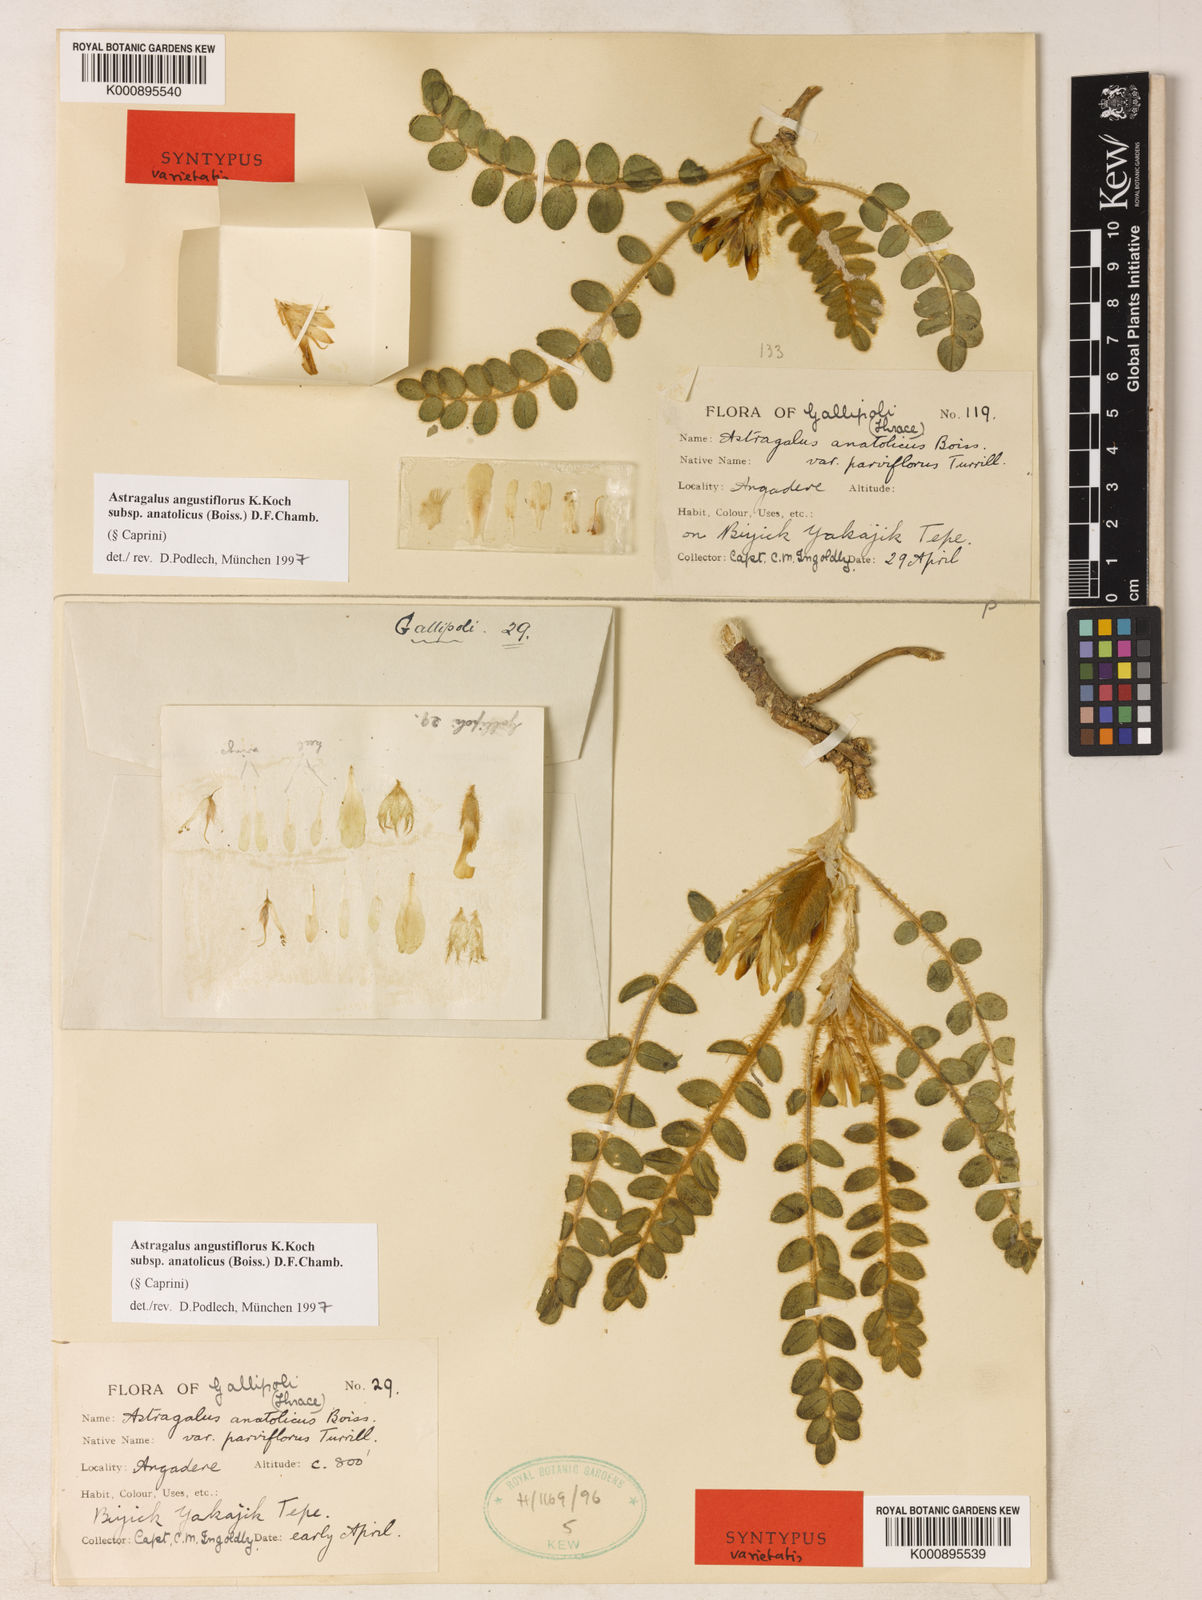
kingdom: Plantae
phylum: Tracheophyta
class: Magnoliopsida
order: Fabales
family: Fabaceae
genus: Astragalus
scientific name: Astragalus angustiflorus
